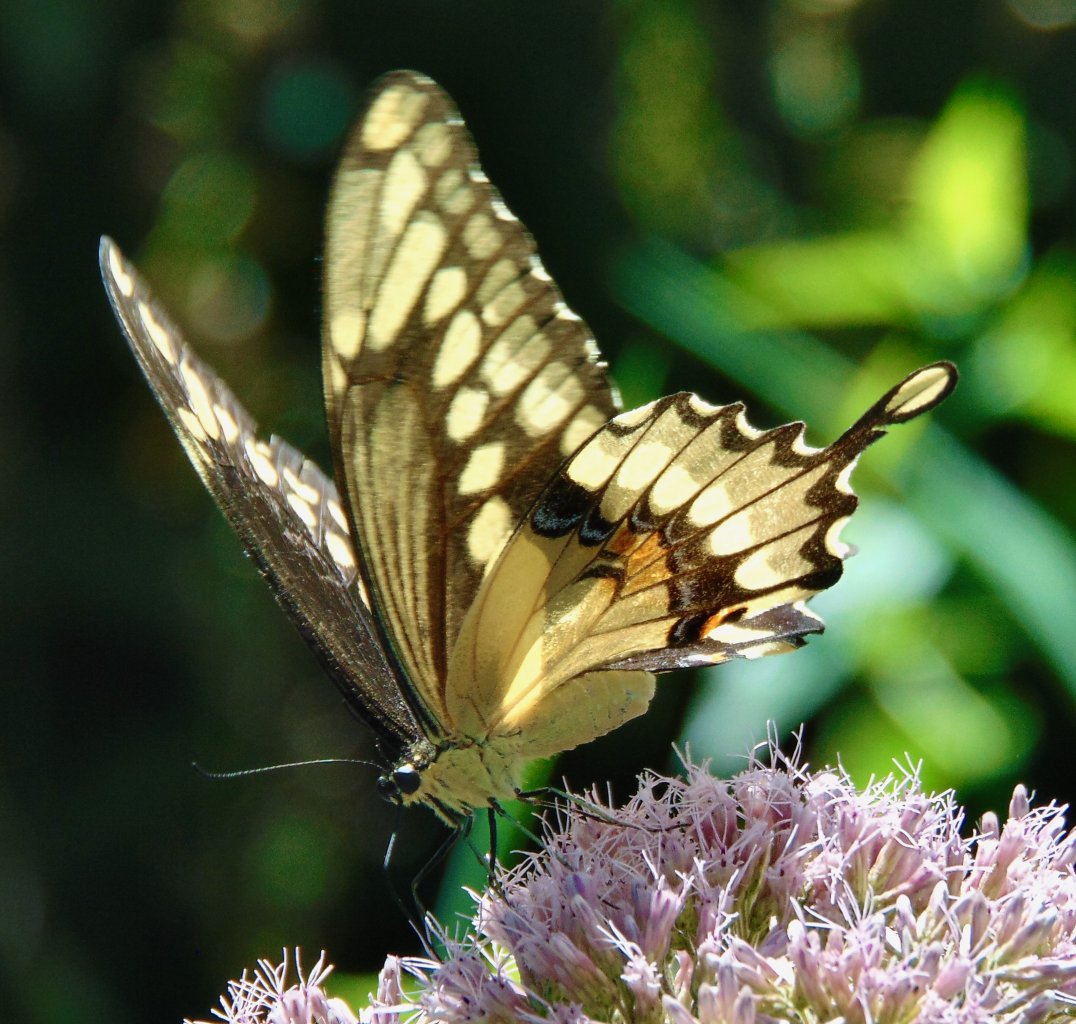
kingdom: Animalia
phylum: Arthropoda
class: Insecta
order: Lepidoptera
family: Papilionidae
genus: Papilio
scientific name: Papilio cresphontes
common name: Eastern Giant Swallowtail
